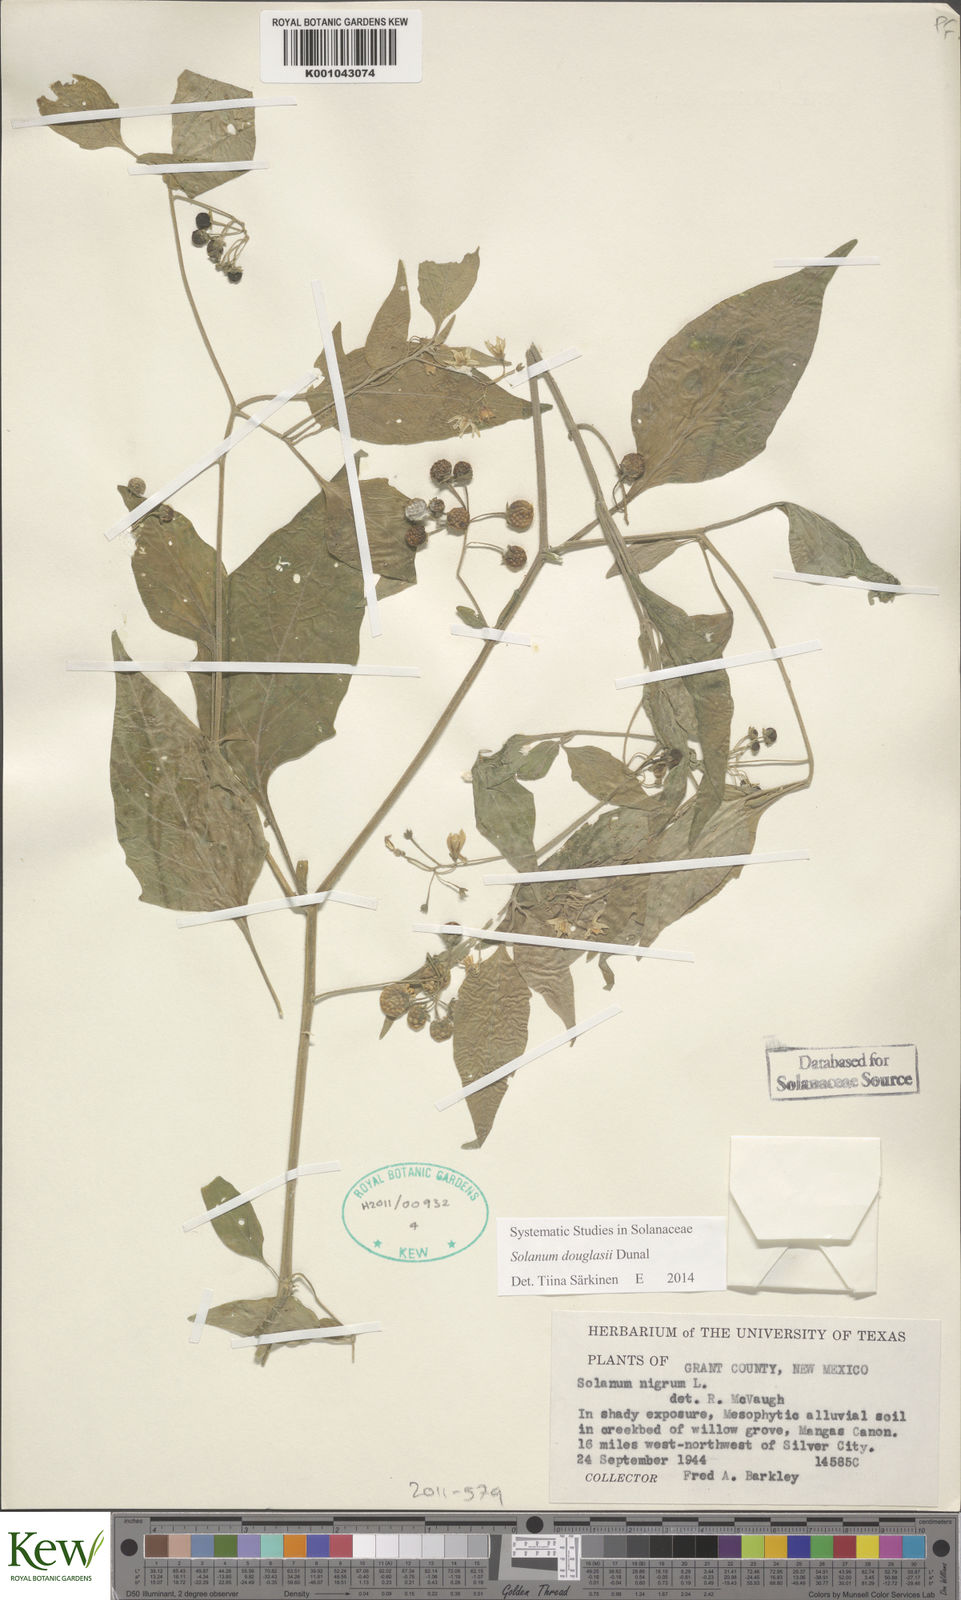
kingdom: Plantae
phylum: Tracheophyta
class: Magnoliopsida
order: Solanales
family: Solanaceae
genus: Solanum
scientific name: Solanum nigrescens
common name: Divine nightshade
